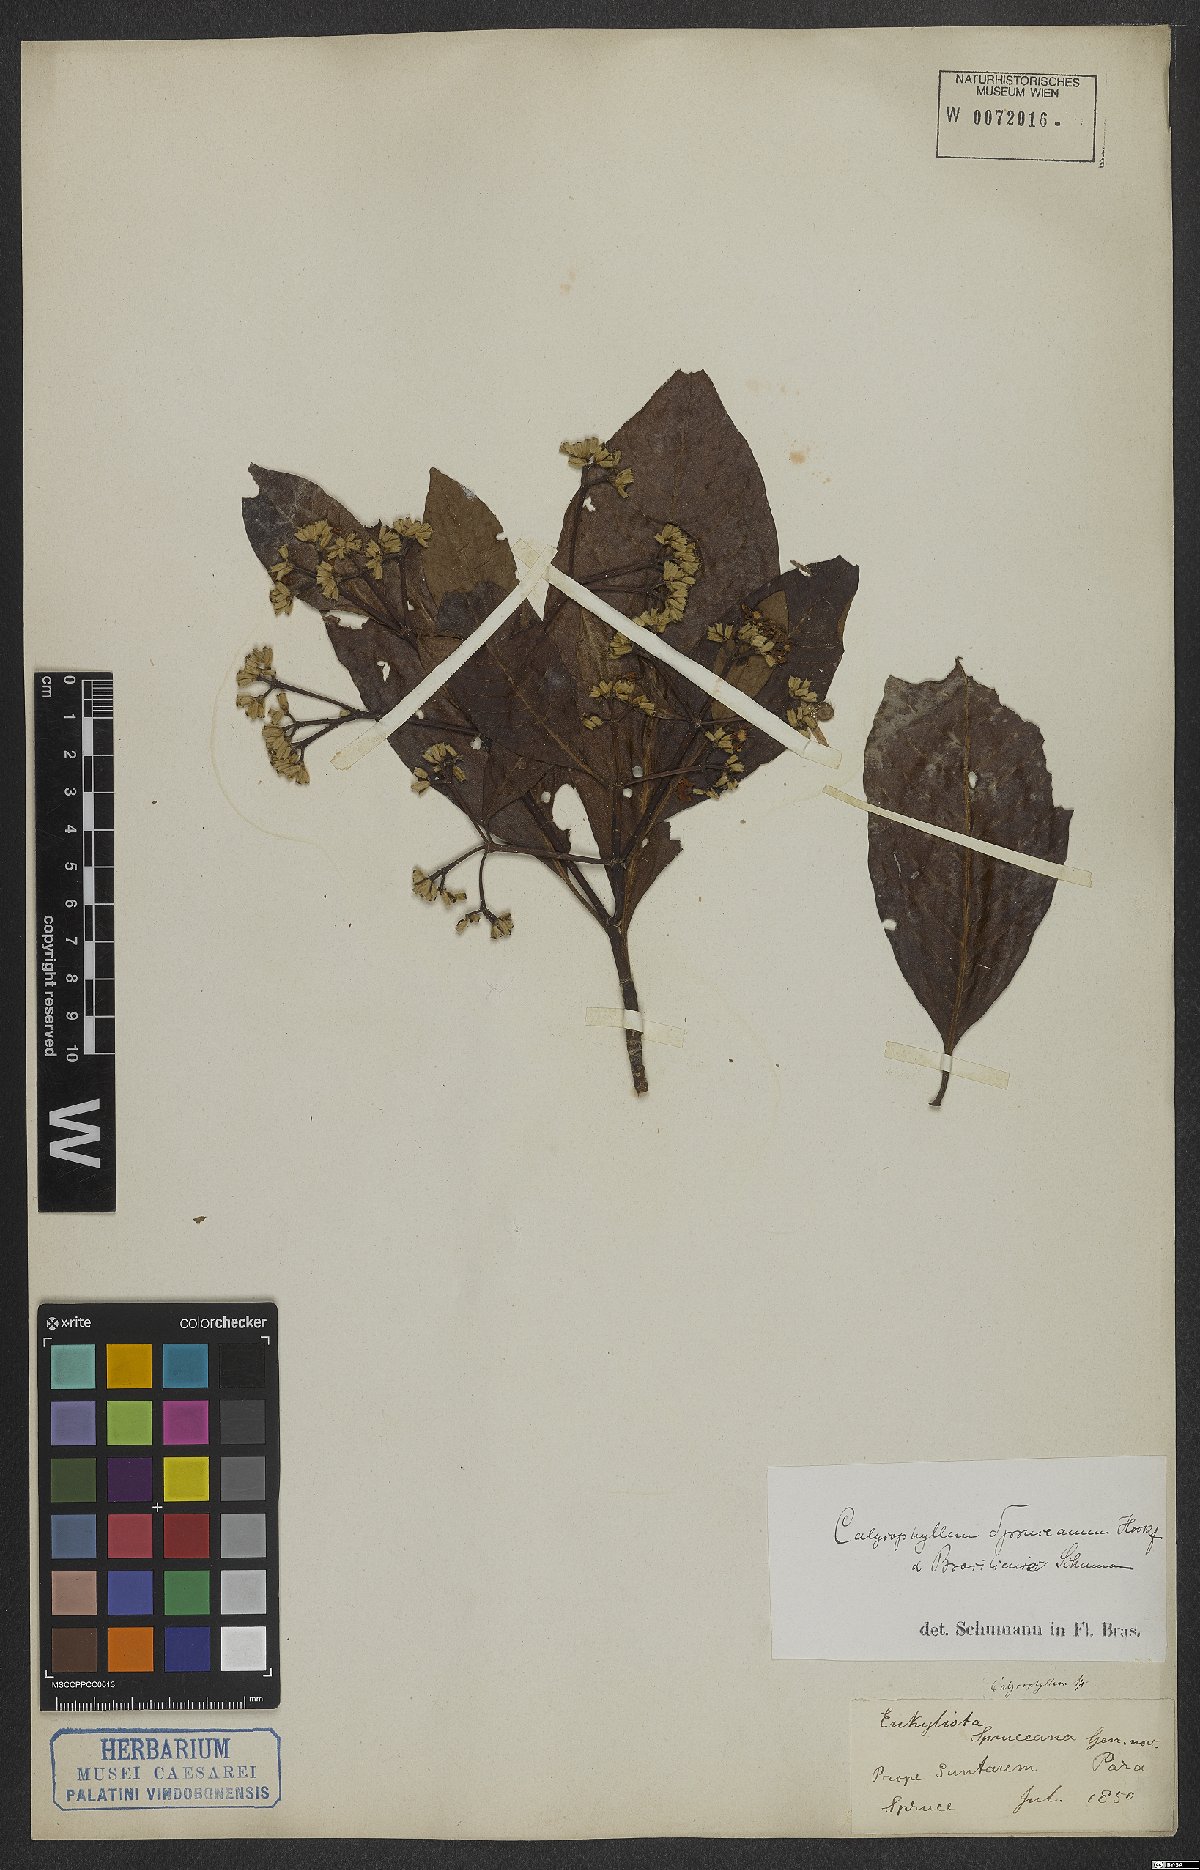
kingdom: Plantae
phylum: Tracheophyta
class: Magnoliopsida
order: Gentianales
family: Rubiaceae
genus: Calycophyllum
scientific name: Calycophyllum spruceanum
